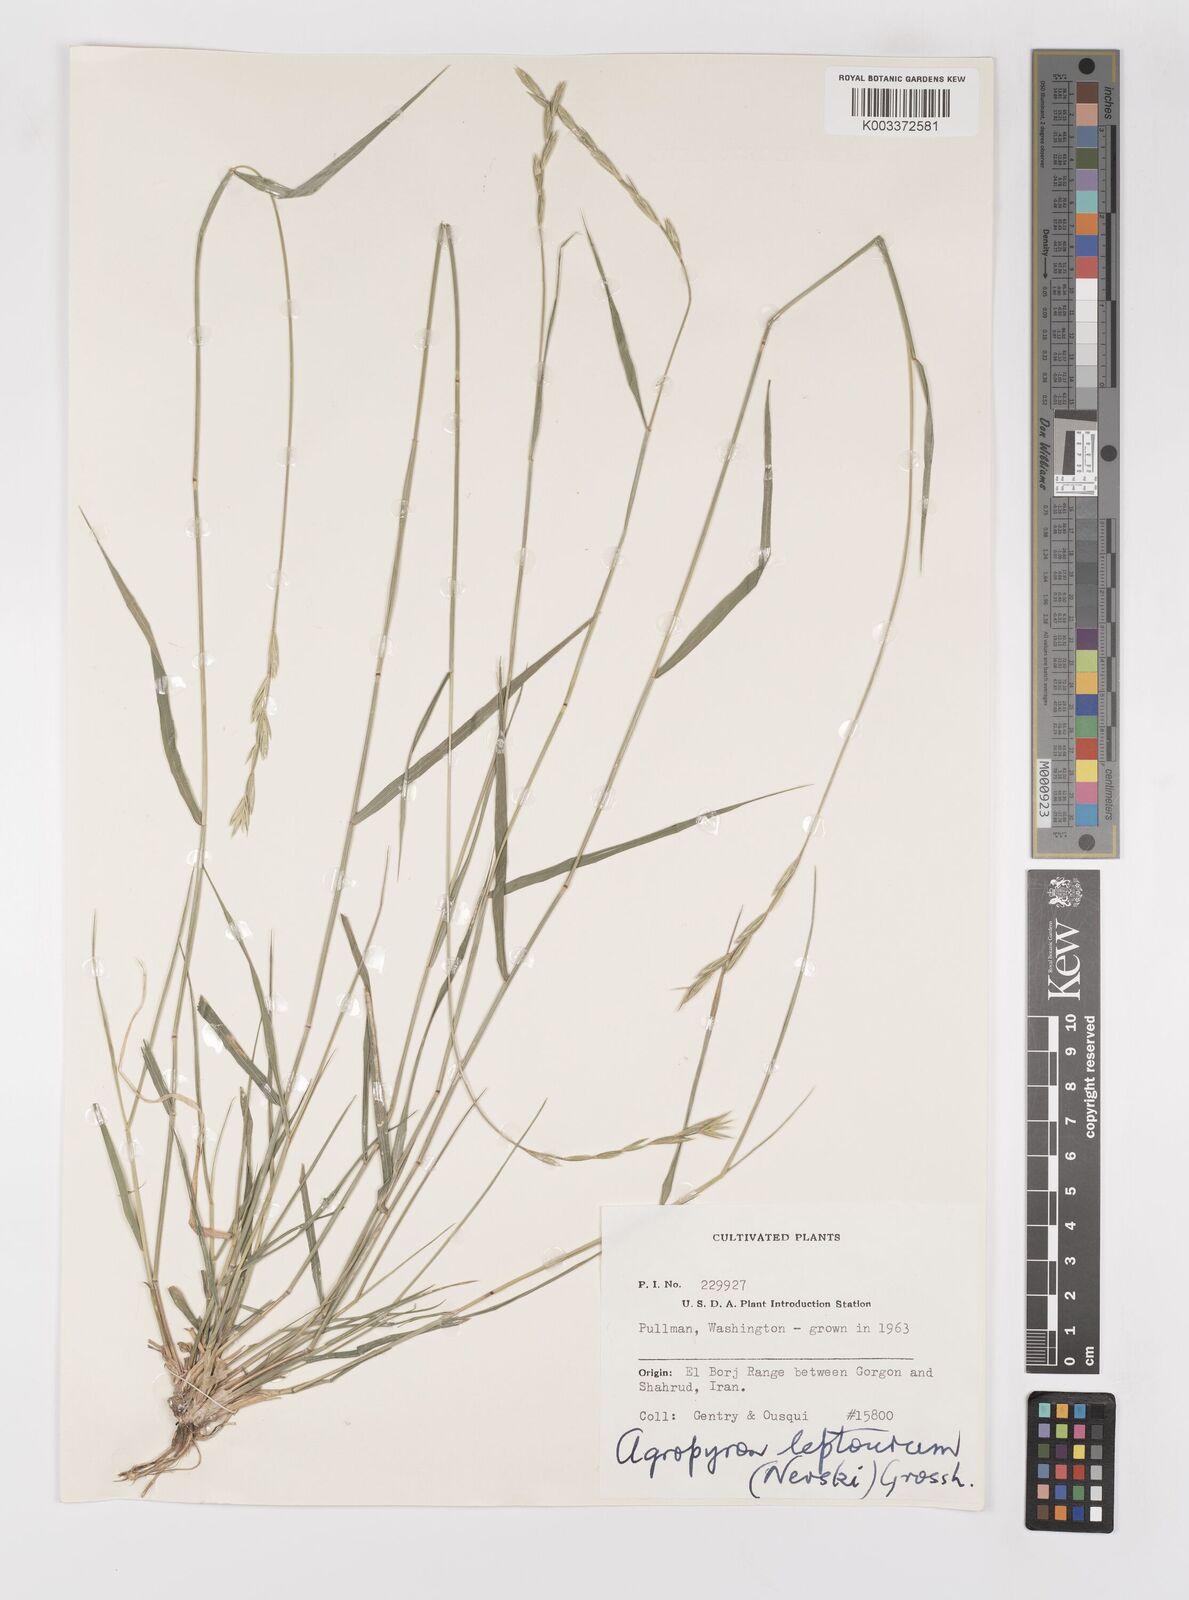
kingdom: Plantae
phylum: Tracheophyta
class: Liliopsida
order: Poales
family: Poaceae
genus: Elymus
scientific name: Elymus transhyrcanus
